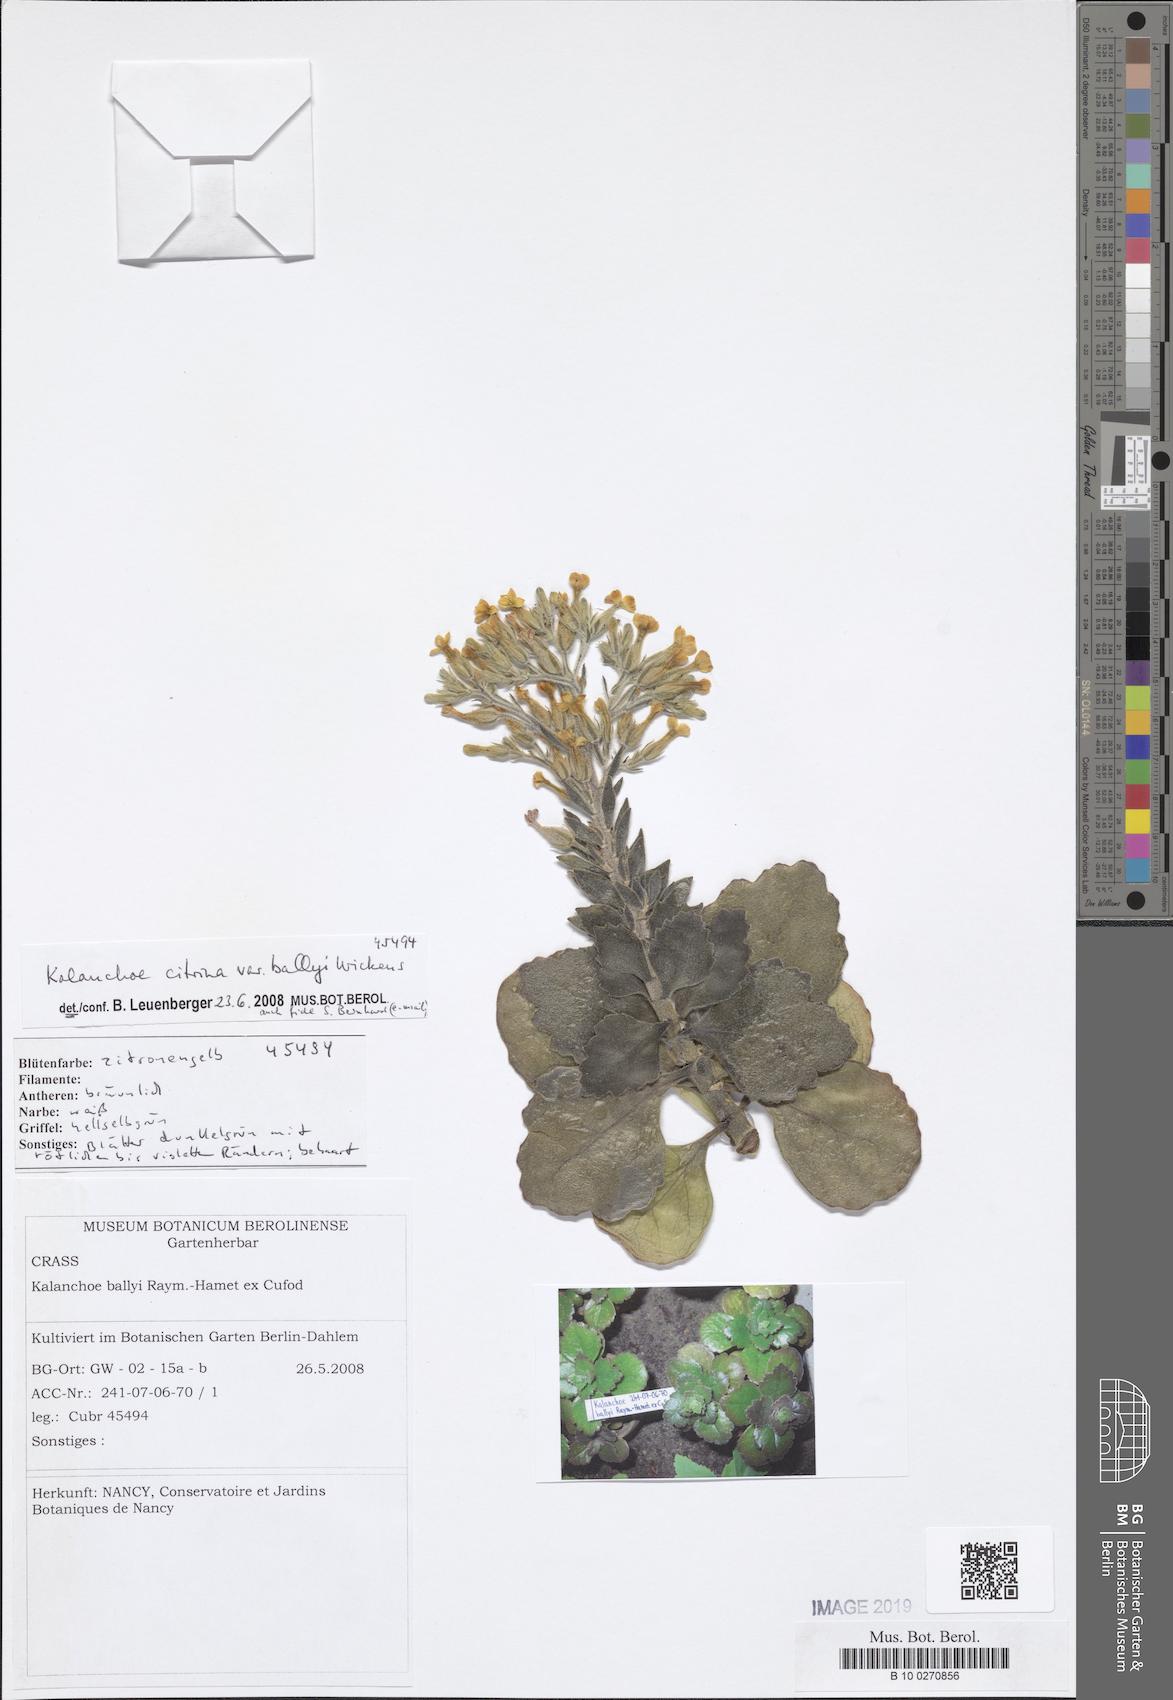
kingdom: Plantae
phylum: Tracheophyta
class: Magnoliopsida
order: Saxifragales
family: Crassulaceae
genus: Kalanchoe
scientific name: Kalanchoe citrina
